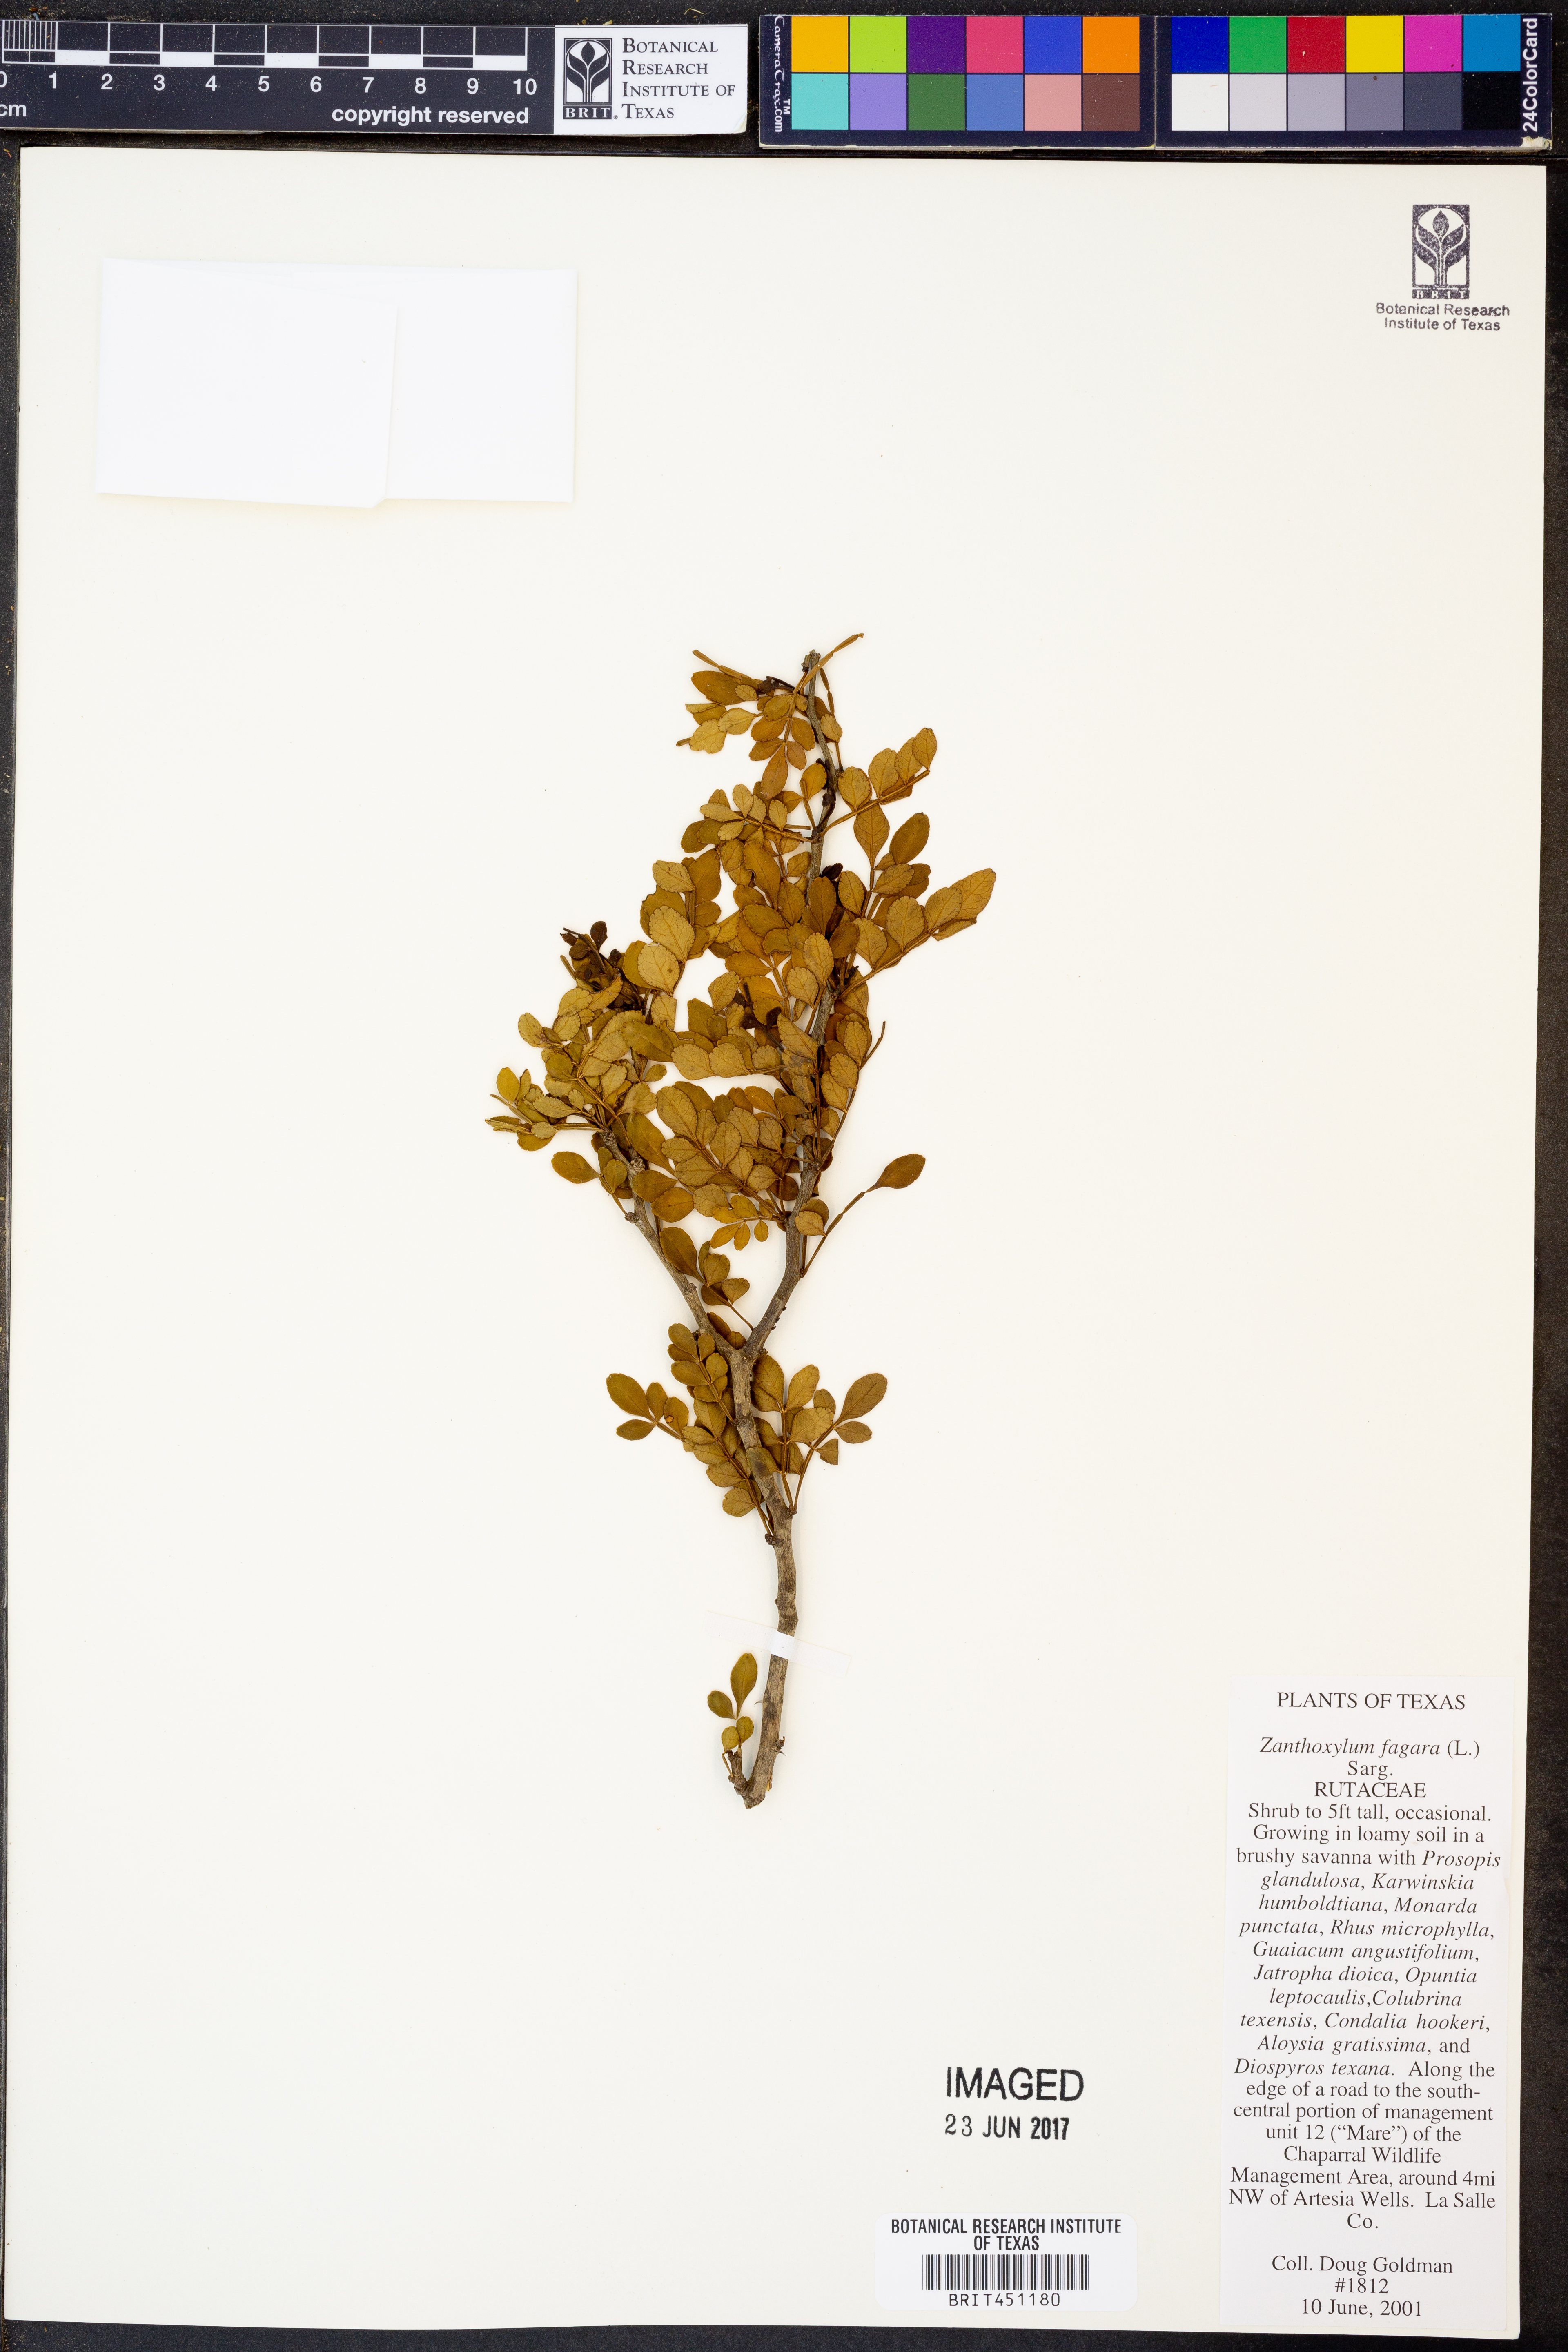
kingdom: Plantae
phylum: Tracheophyta
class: Magnoliopsida
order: Sapindales
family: Rutaceae
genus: Zanthoxylum
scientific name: Zanthoxylum fagara
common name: Lime prickly-ash
